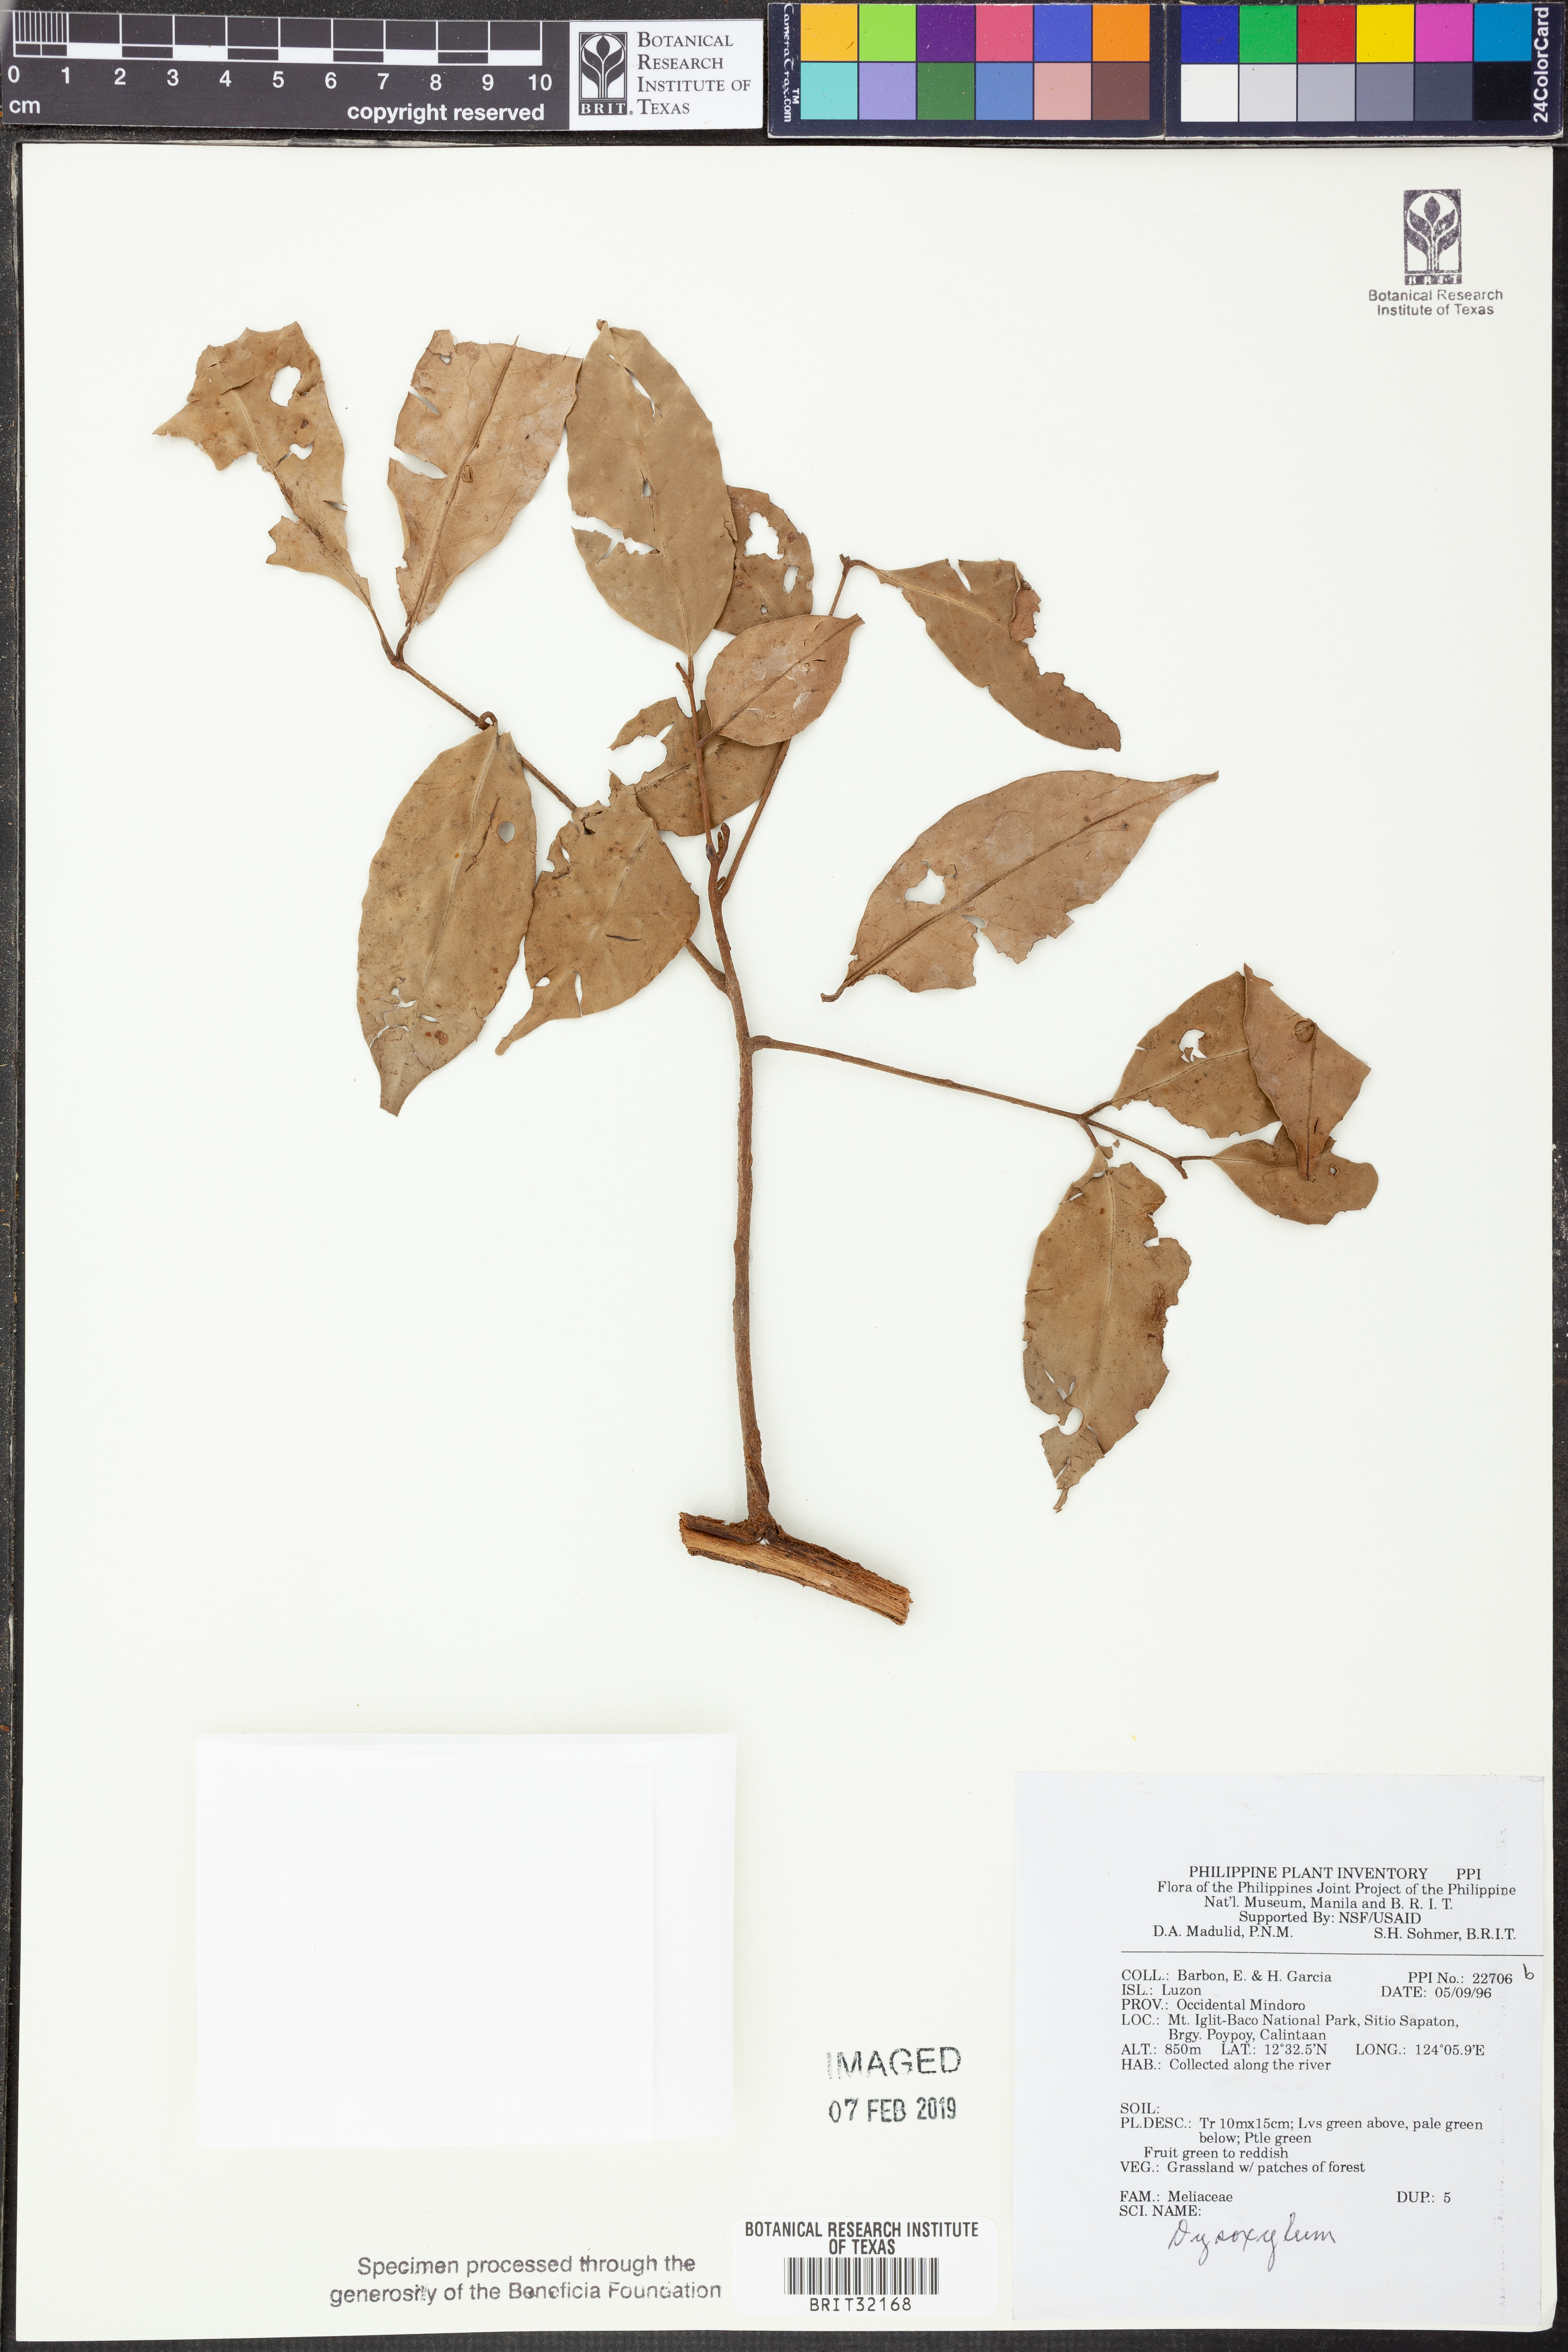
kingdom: Plantae
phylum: Tracheophyta
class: Magnoliopsida
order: Sapindales
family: Meliaceae
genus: Dysoxylum
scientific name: Dysoxylum
